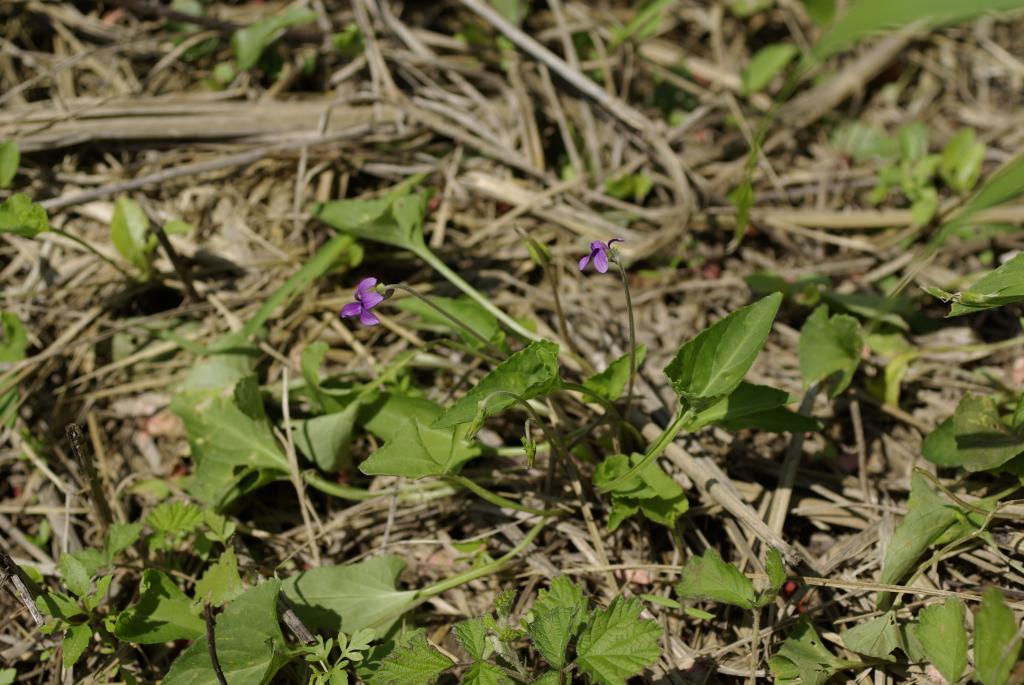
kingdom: Plantae
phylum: Tracheophyta
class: Magnoliopsida
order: Malpighiales
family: Violaceae
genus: Viola
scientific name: Viola inconspicua
